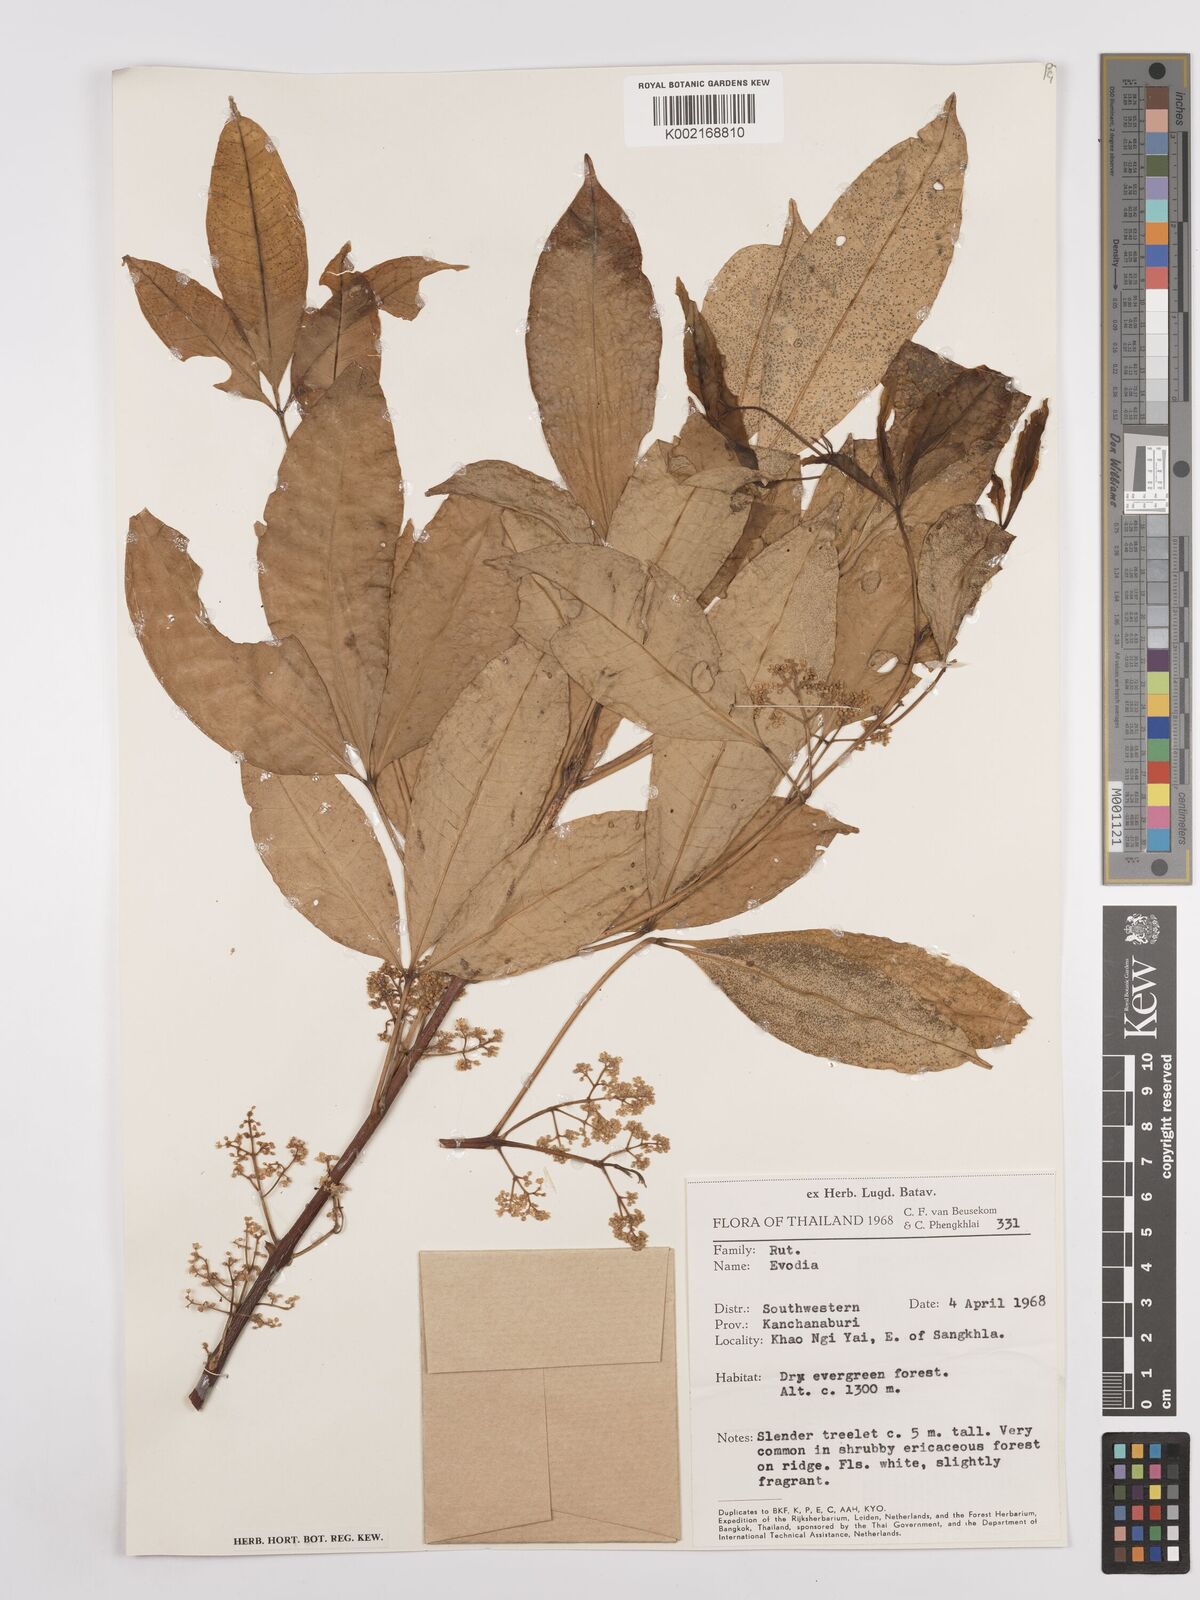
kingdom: Plantae
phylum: Tracheophyta
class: Magnoliopsida
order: Sapindales
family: Rutaceae
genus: Euodia
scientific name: Euodia
